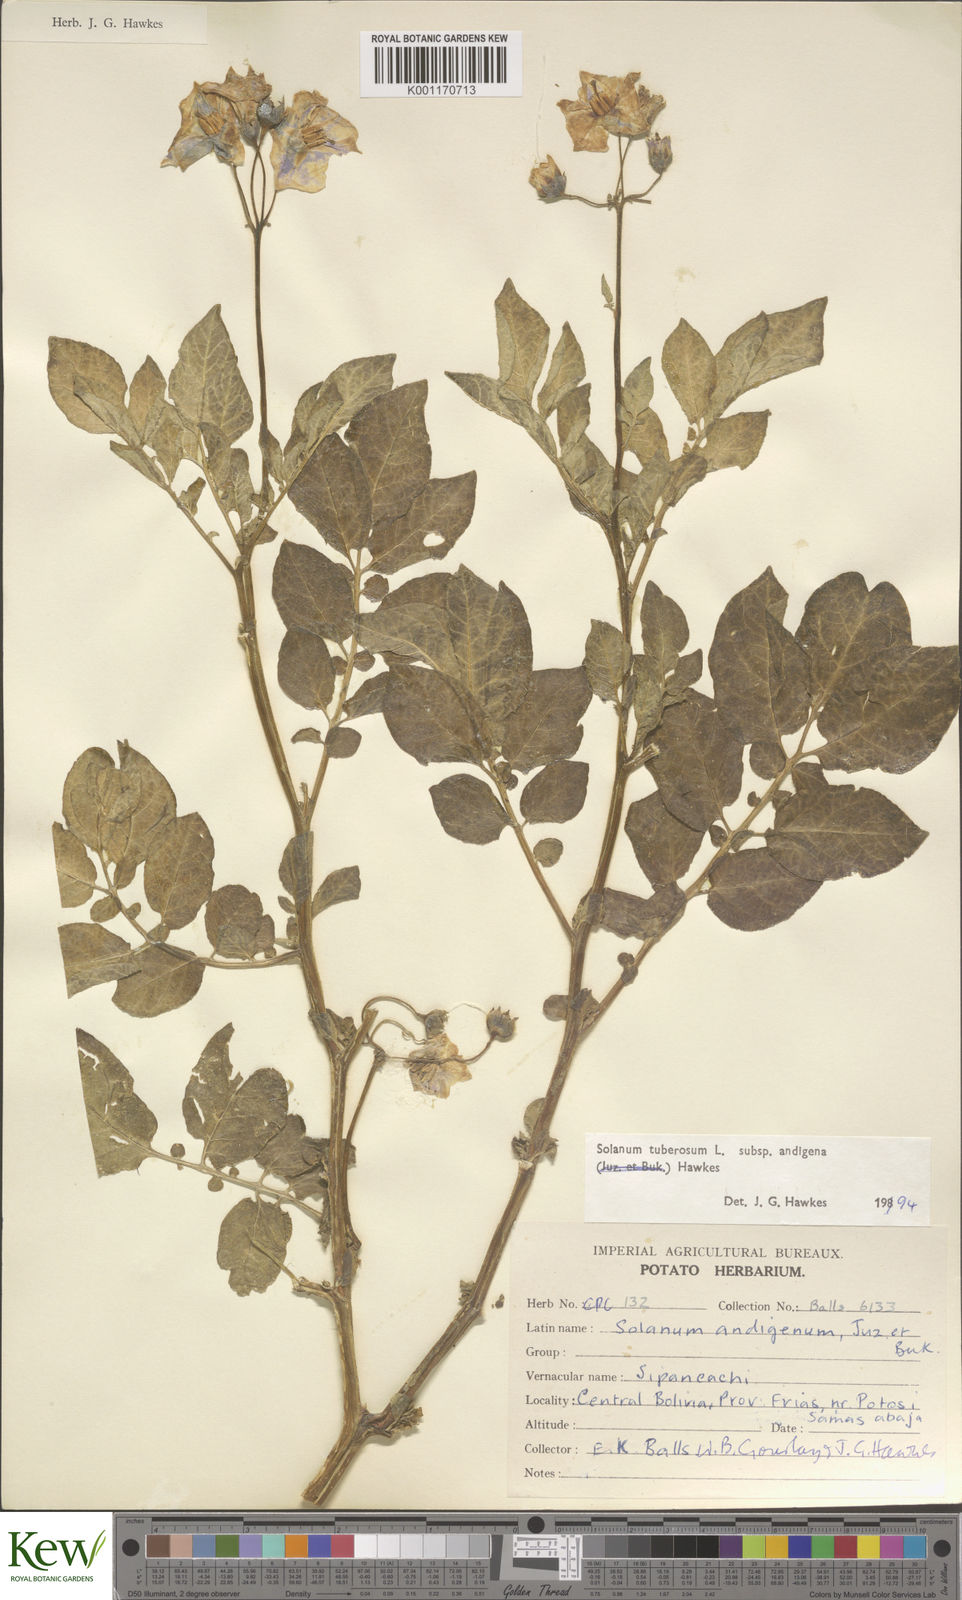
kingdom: Plantae
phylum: Tracheophyta
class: Magnoliopsida
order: Solanales
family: Solanaceae
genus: Solanum
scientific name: Solanum tuberosum
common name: Potato
